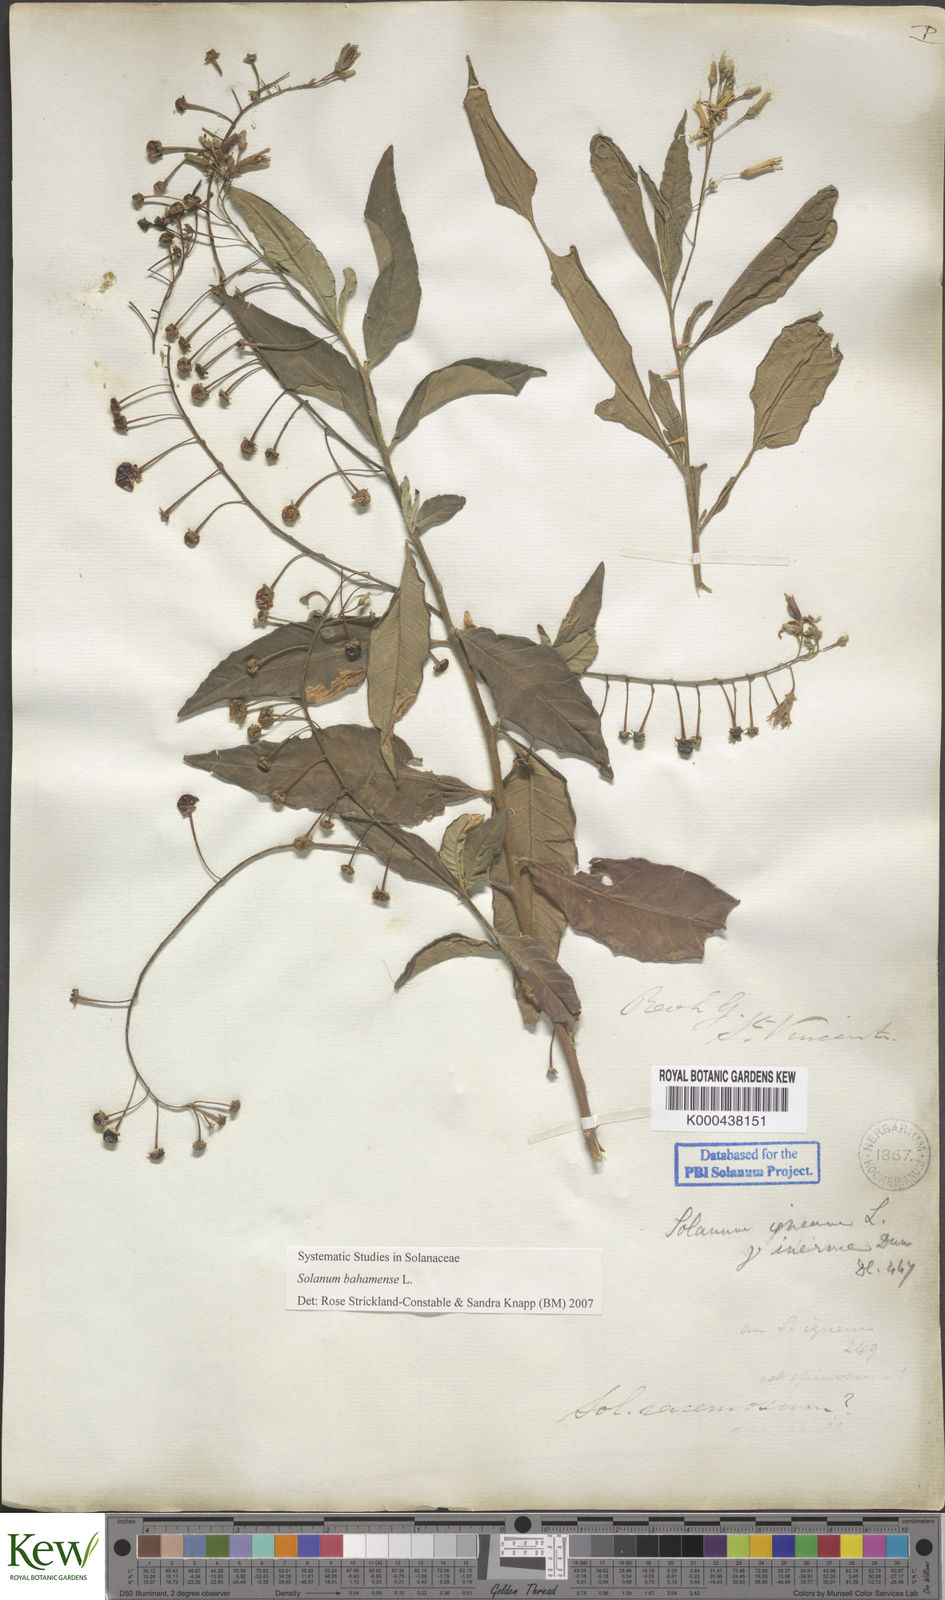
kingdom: Plantae
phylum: Tracheophyta
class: Magnoliopsida
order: Solanales
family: Solanaceae
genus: Solanum
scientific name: Solanum bahamense
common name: Canker-berry
